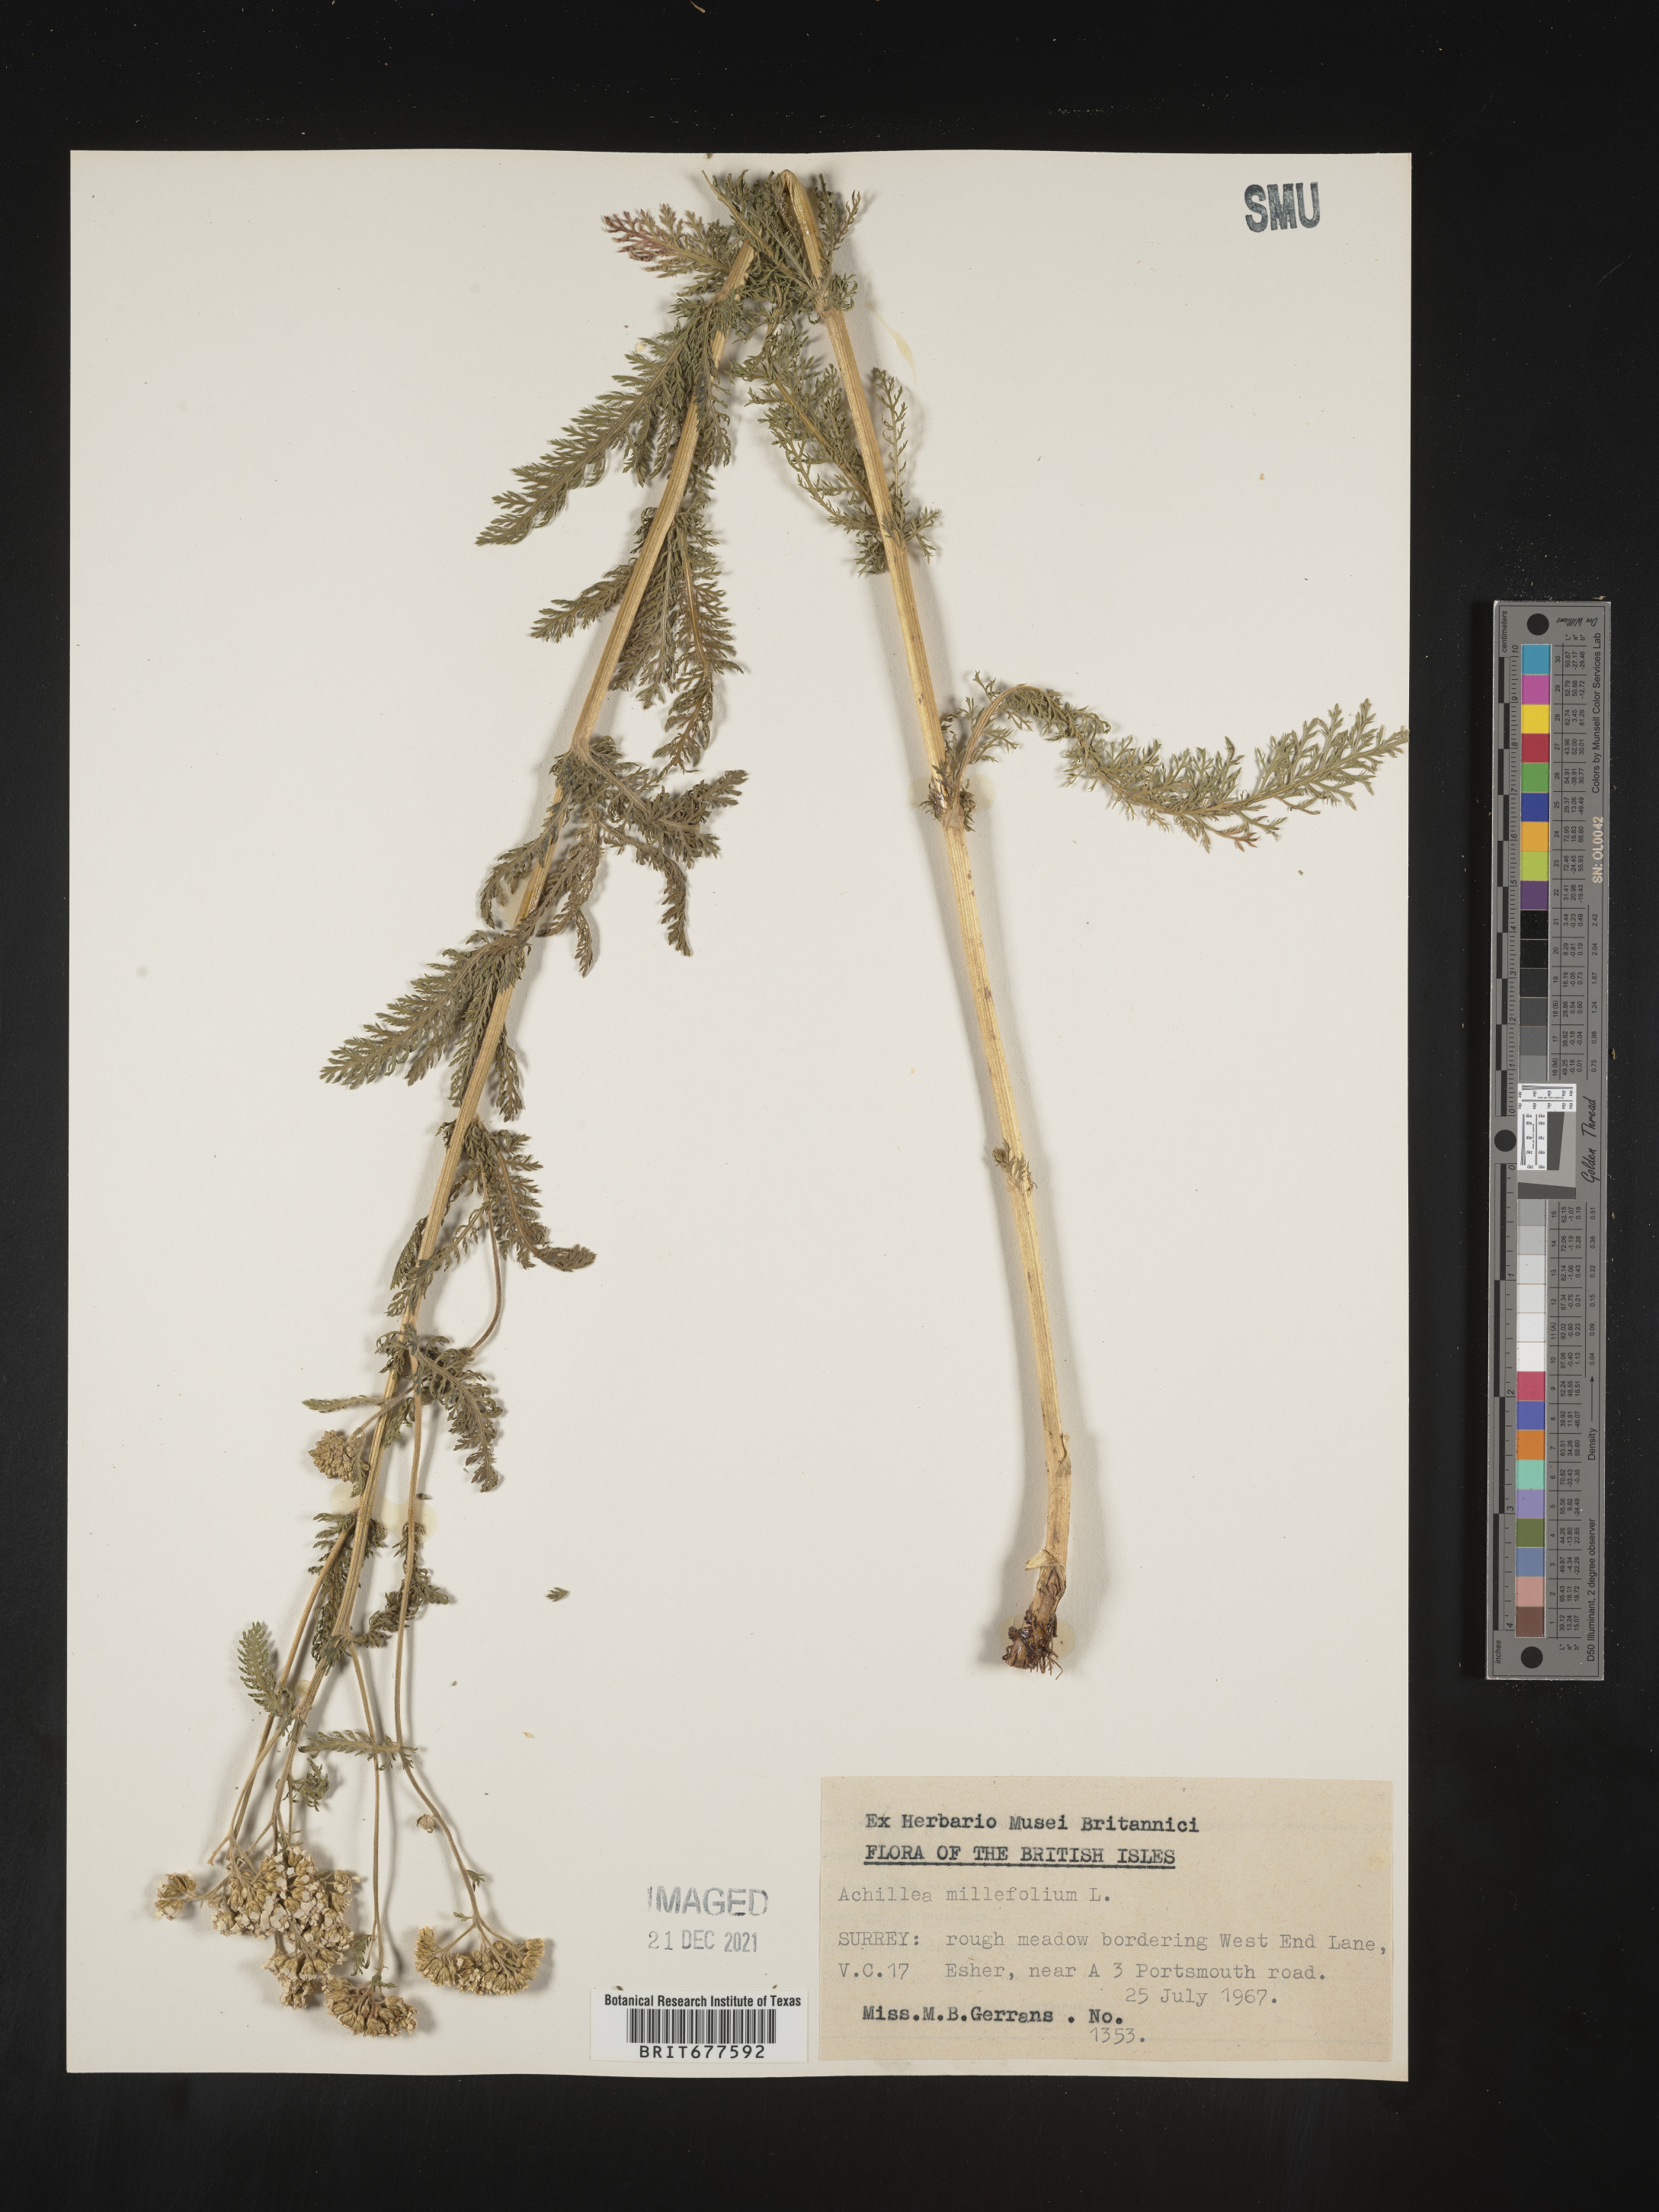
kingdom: Plantae
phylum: Tracheophyta
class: Magnoliopsida
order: Asterales
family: Asteraceae
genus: Achillea
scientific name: Achillea millefolium
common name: Yarrow
